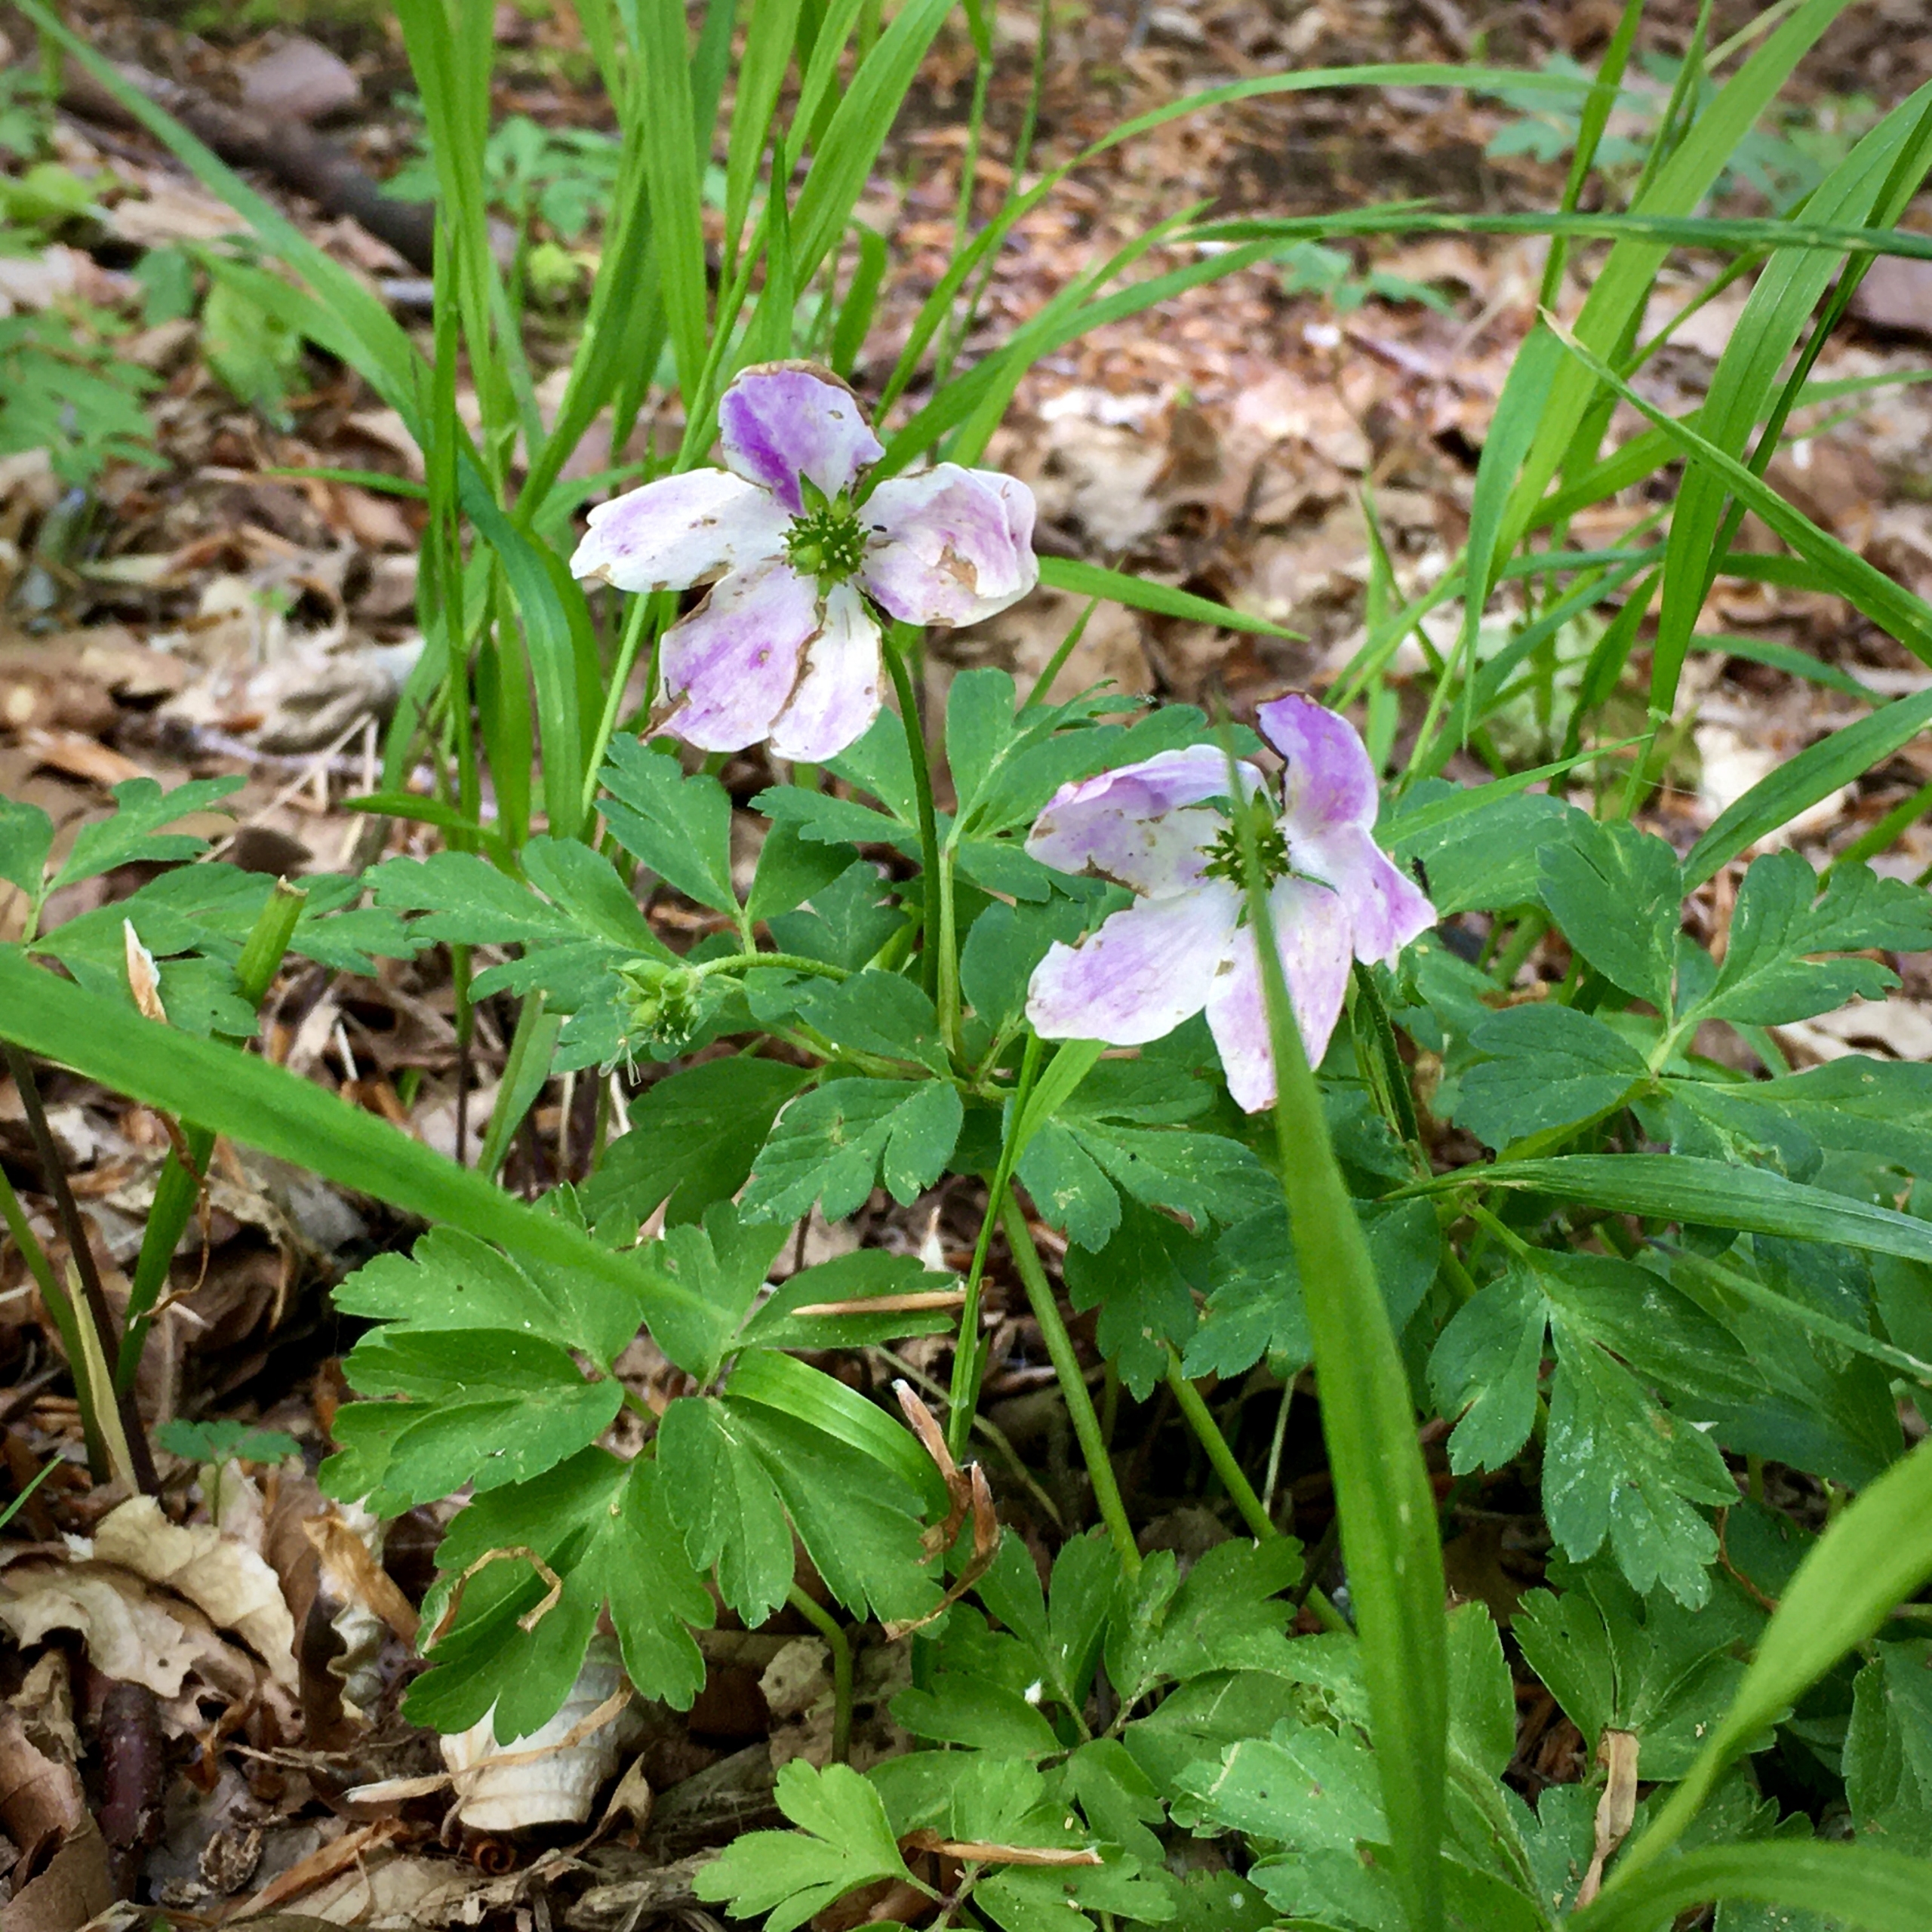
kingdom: Plantae
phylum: Tracheophyta
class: Magnoliopsida
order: Ranunculales
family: Ranunculaceae
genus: Anemone
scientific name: Anemone nemorosa
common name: Hvid anemone
